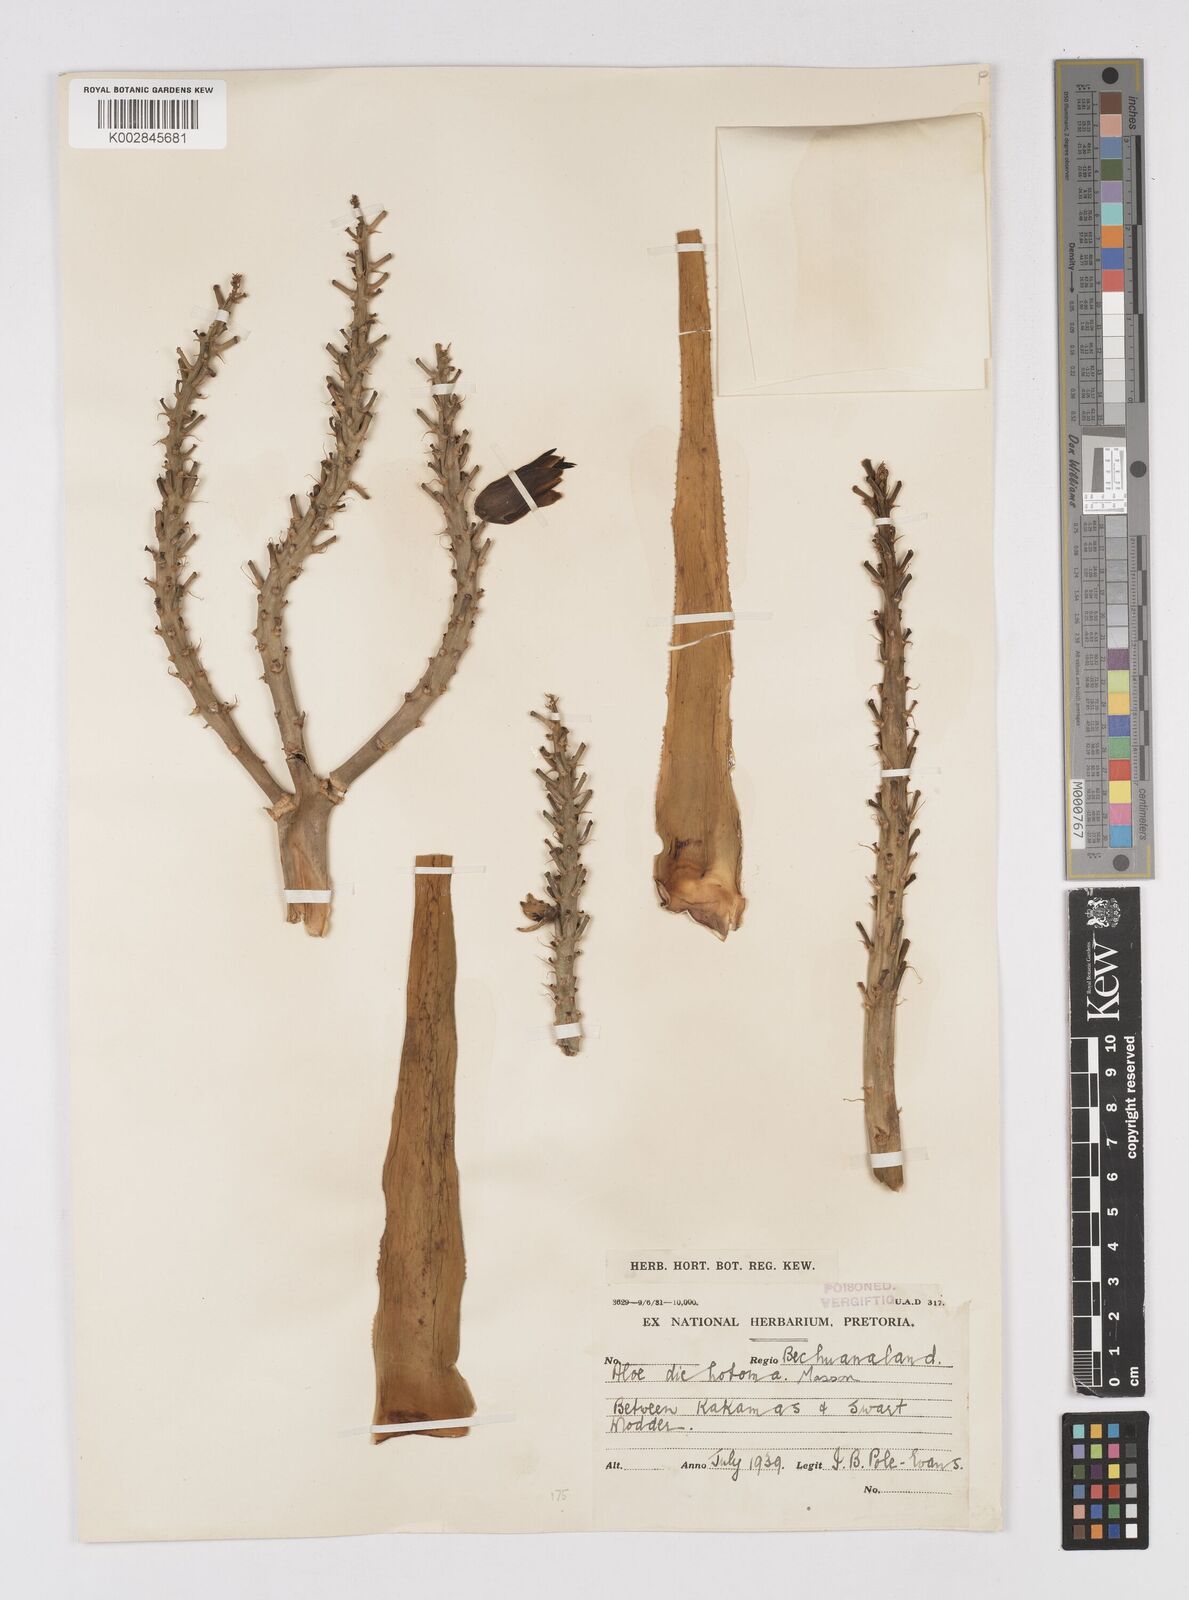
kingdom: Plantae
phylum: Tracheophyta
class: Liliopsida
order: Asparagales
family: Asphodelaceae
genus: Aloidendron
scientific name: Aloidendron dichotomum
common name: Quiver tree
